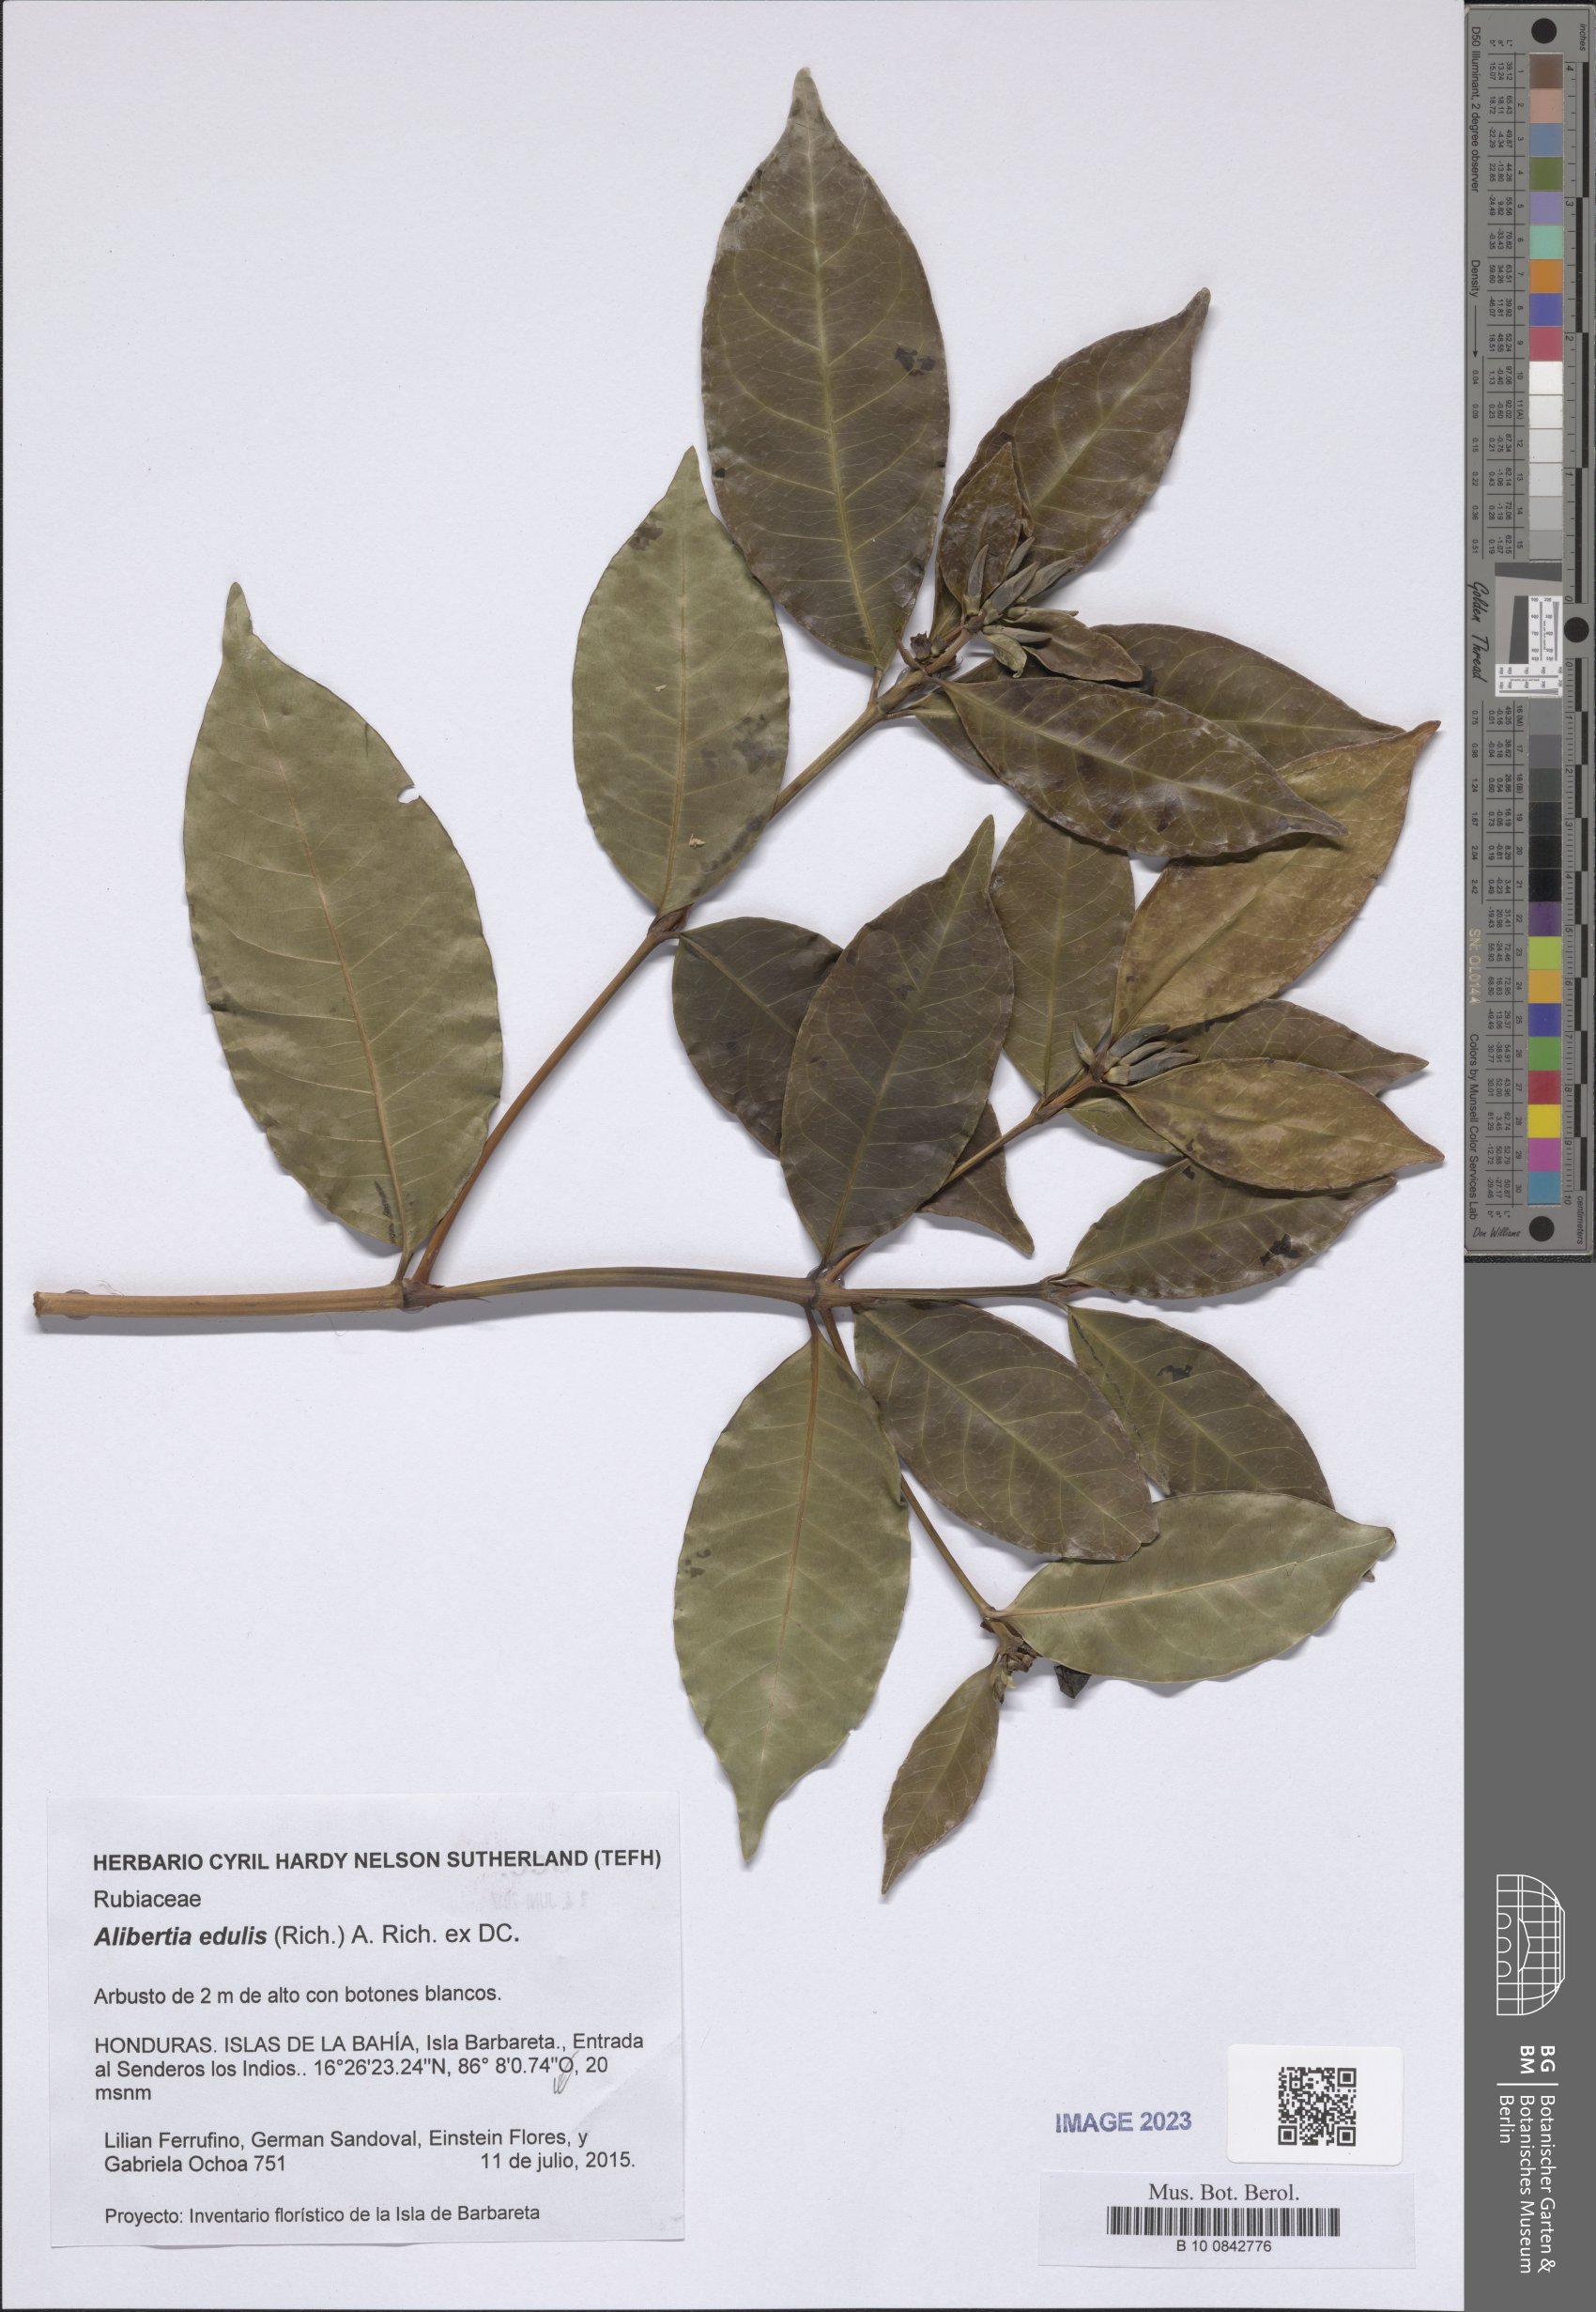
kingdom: Plantae
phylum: Tracheophyta
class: Magnoliopsida
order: Gentianales
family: Rubiaceae
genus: Alibertia
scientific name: Alibertia edulis
